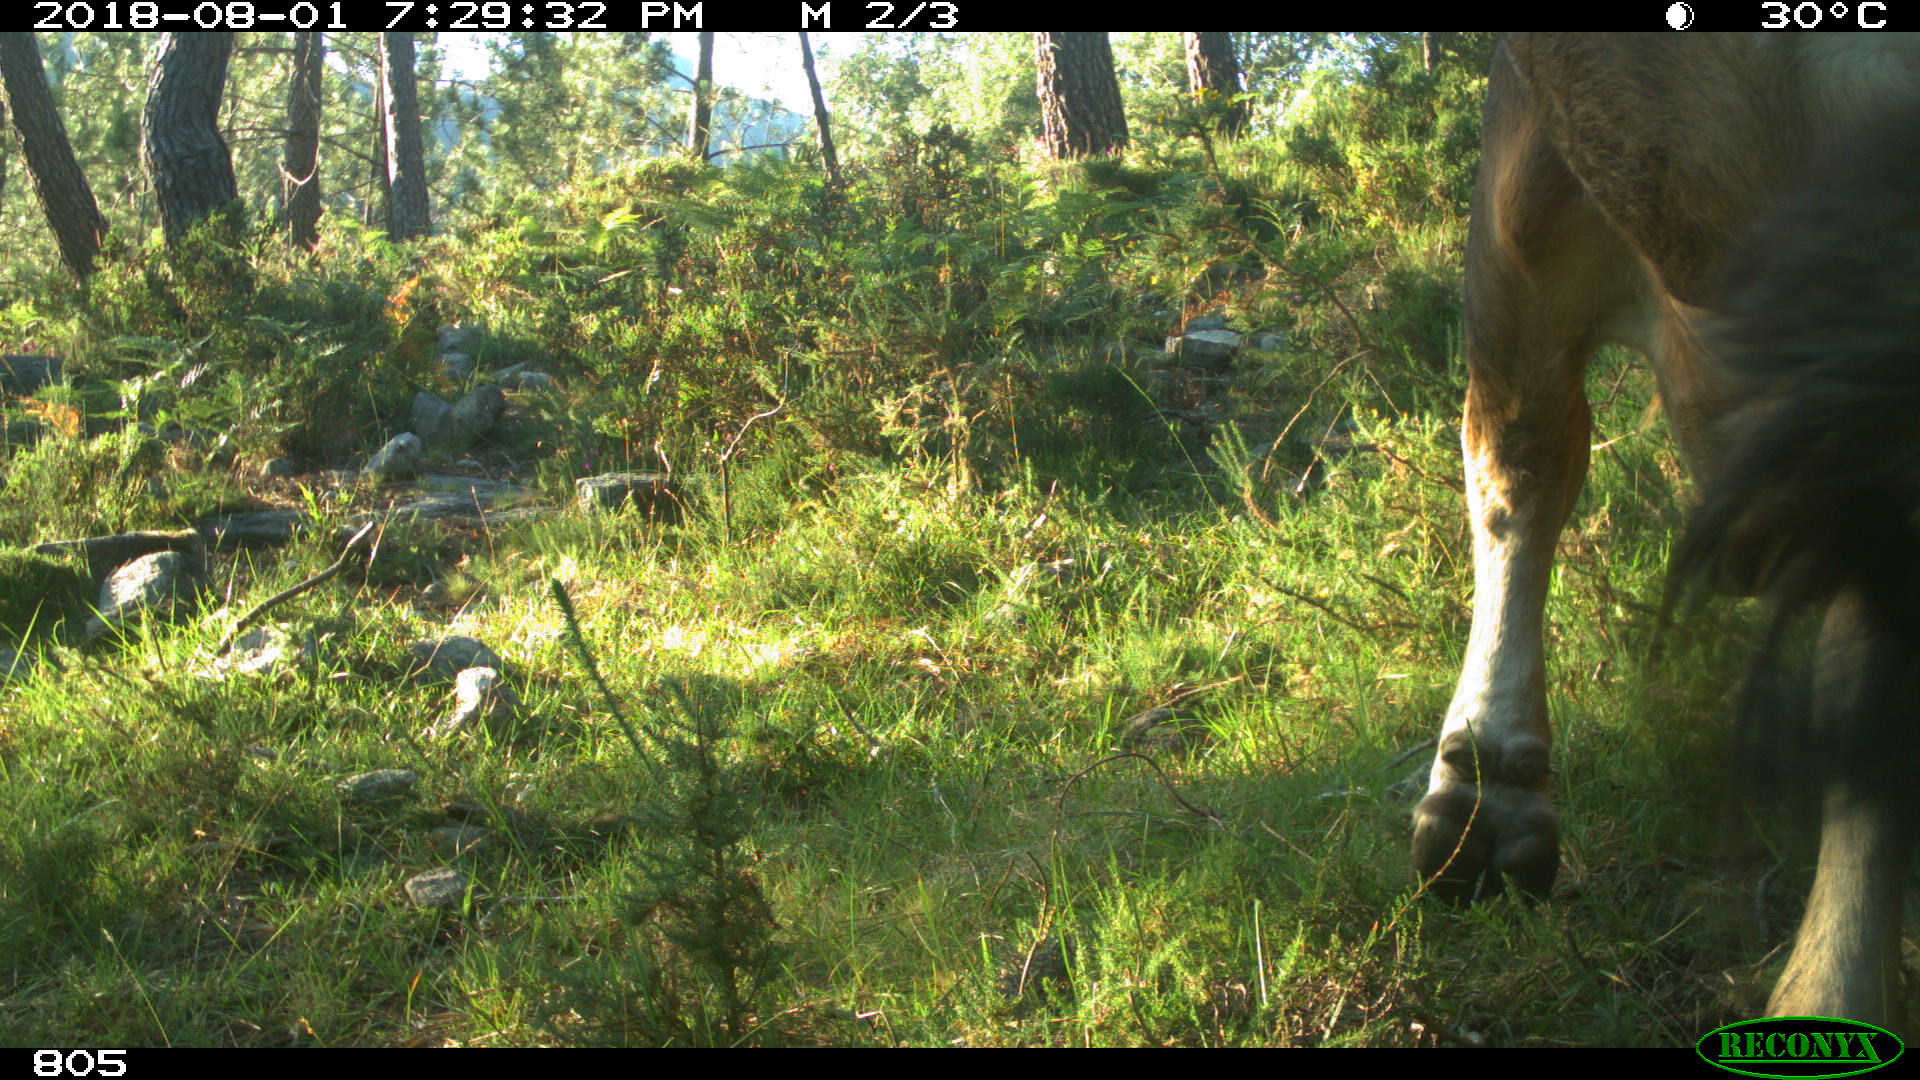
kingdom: Animalia
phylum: Chordata
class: Mammalia
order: Artiodactyla
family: Bovidae
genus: Bos
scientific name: Bos taurus
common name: Domesticated cattle
